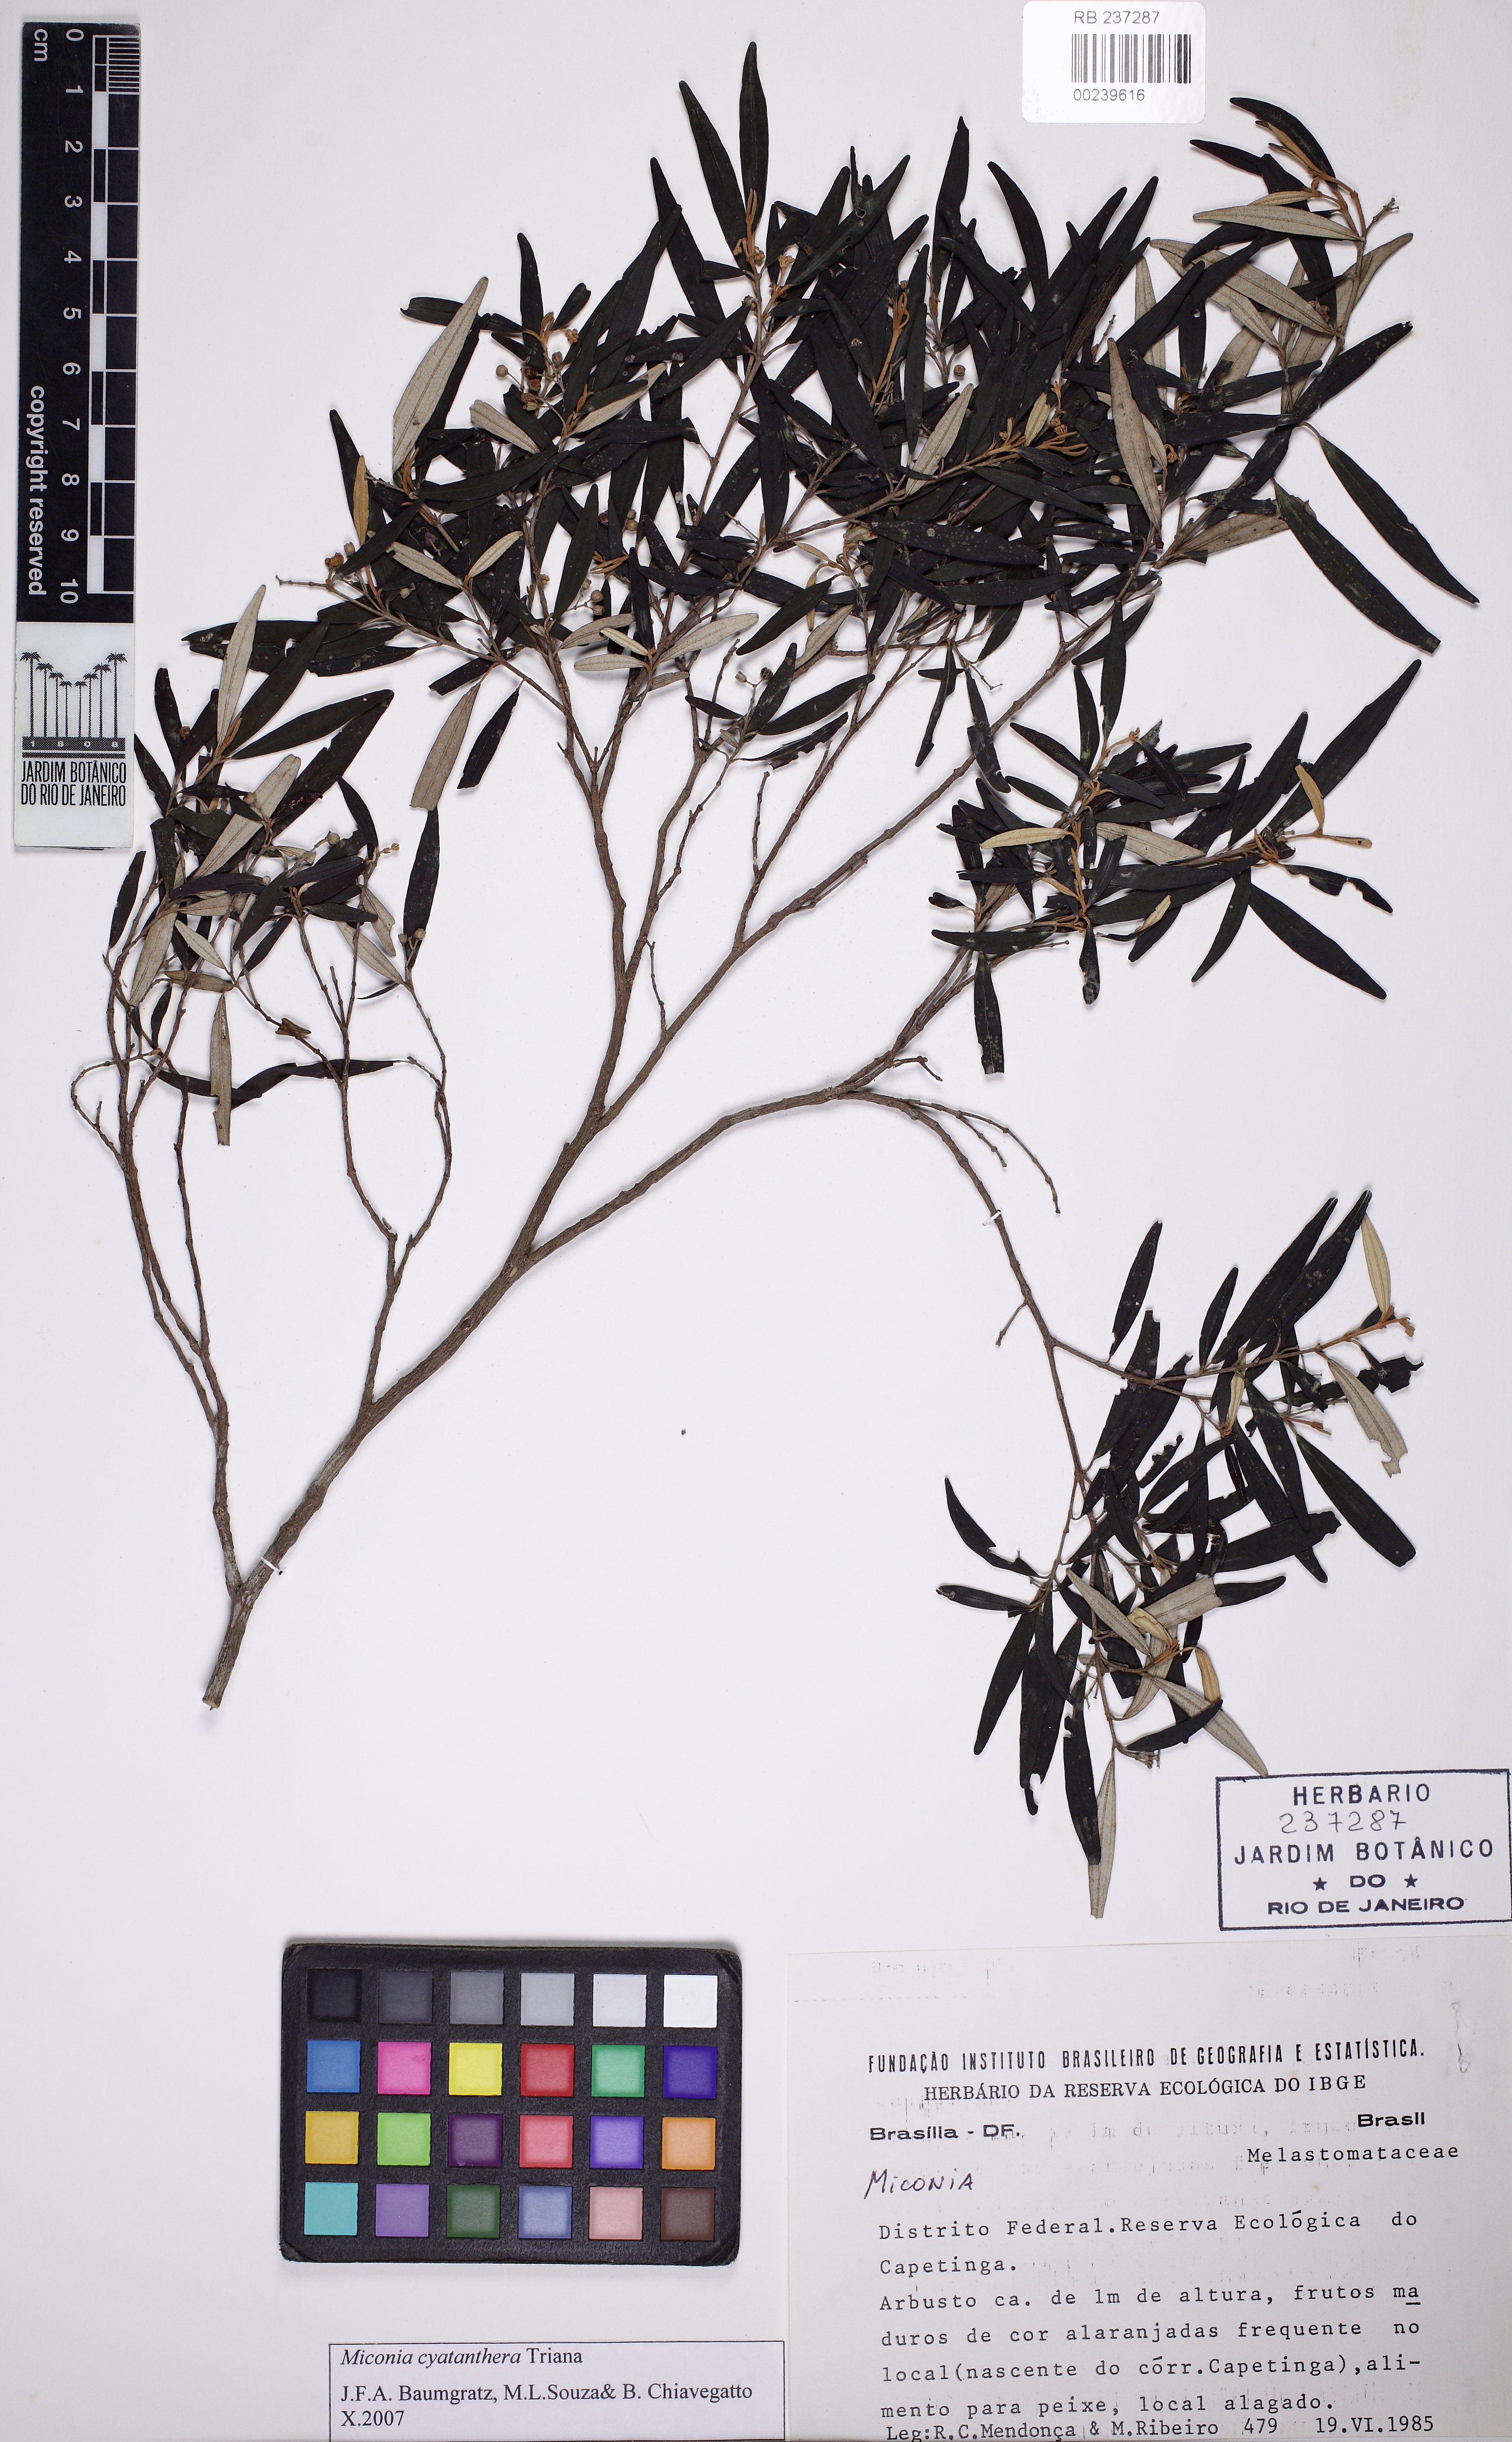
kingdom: Plantae
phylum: Tracheophyta
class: Magnoliopsida
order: Myrtales
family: Melastomataceae
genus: Miconia
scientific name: Miconia cyathanthera
